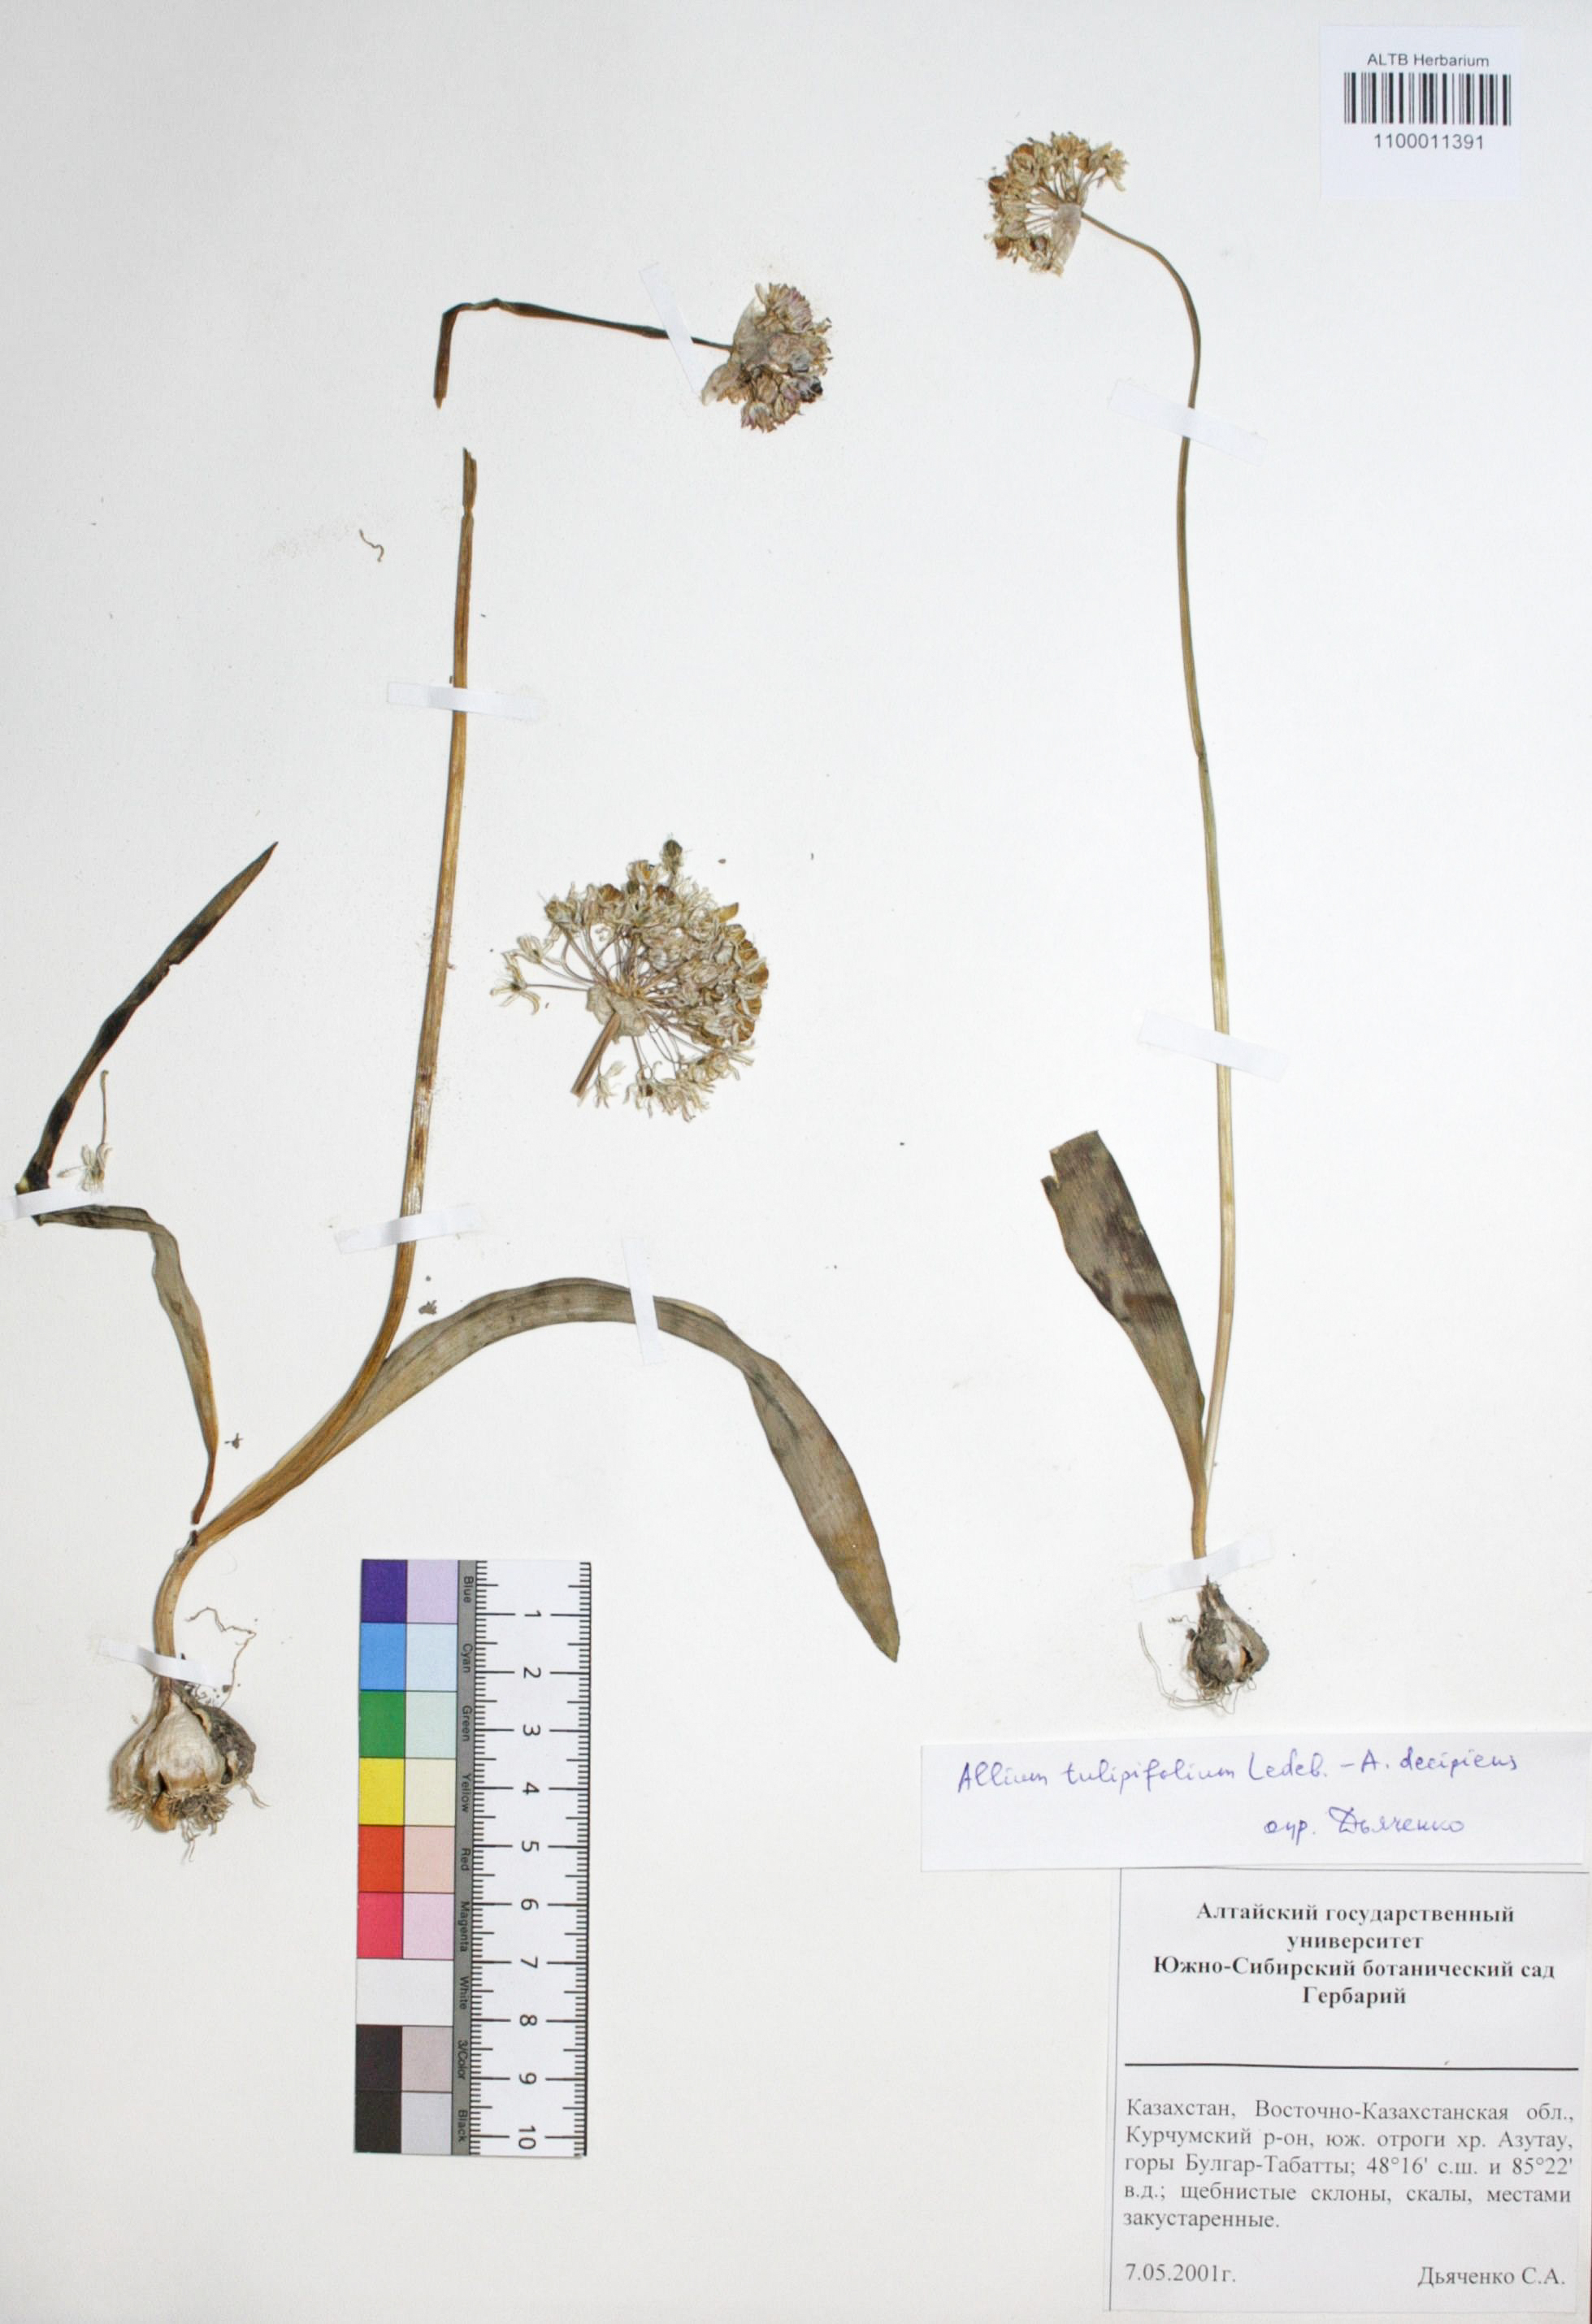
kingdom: Plantae
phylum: Tracheophyta
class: Liliopsida
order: Asparagales
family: Amaryllidaceae
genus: Allium
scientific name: Allium tulipifolium
